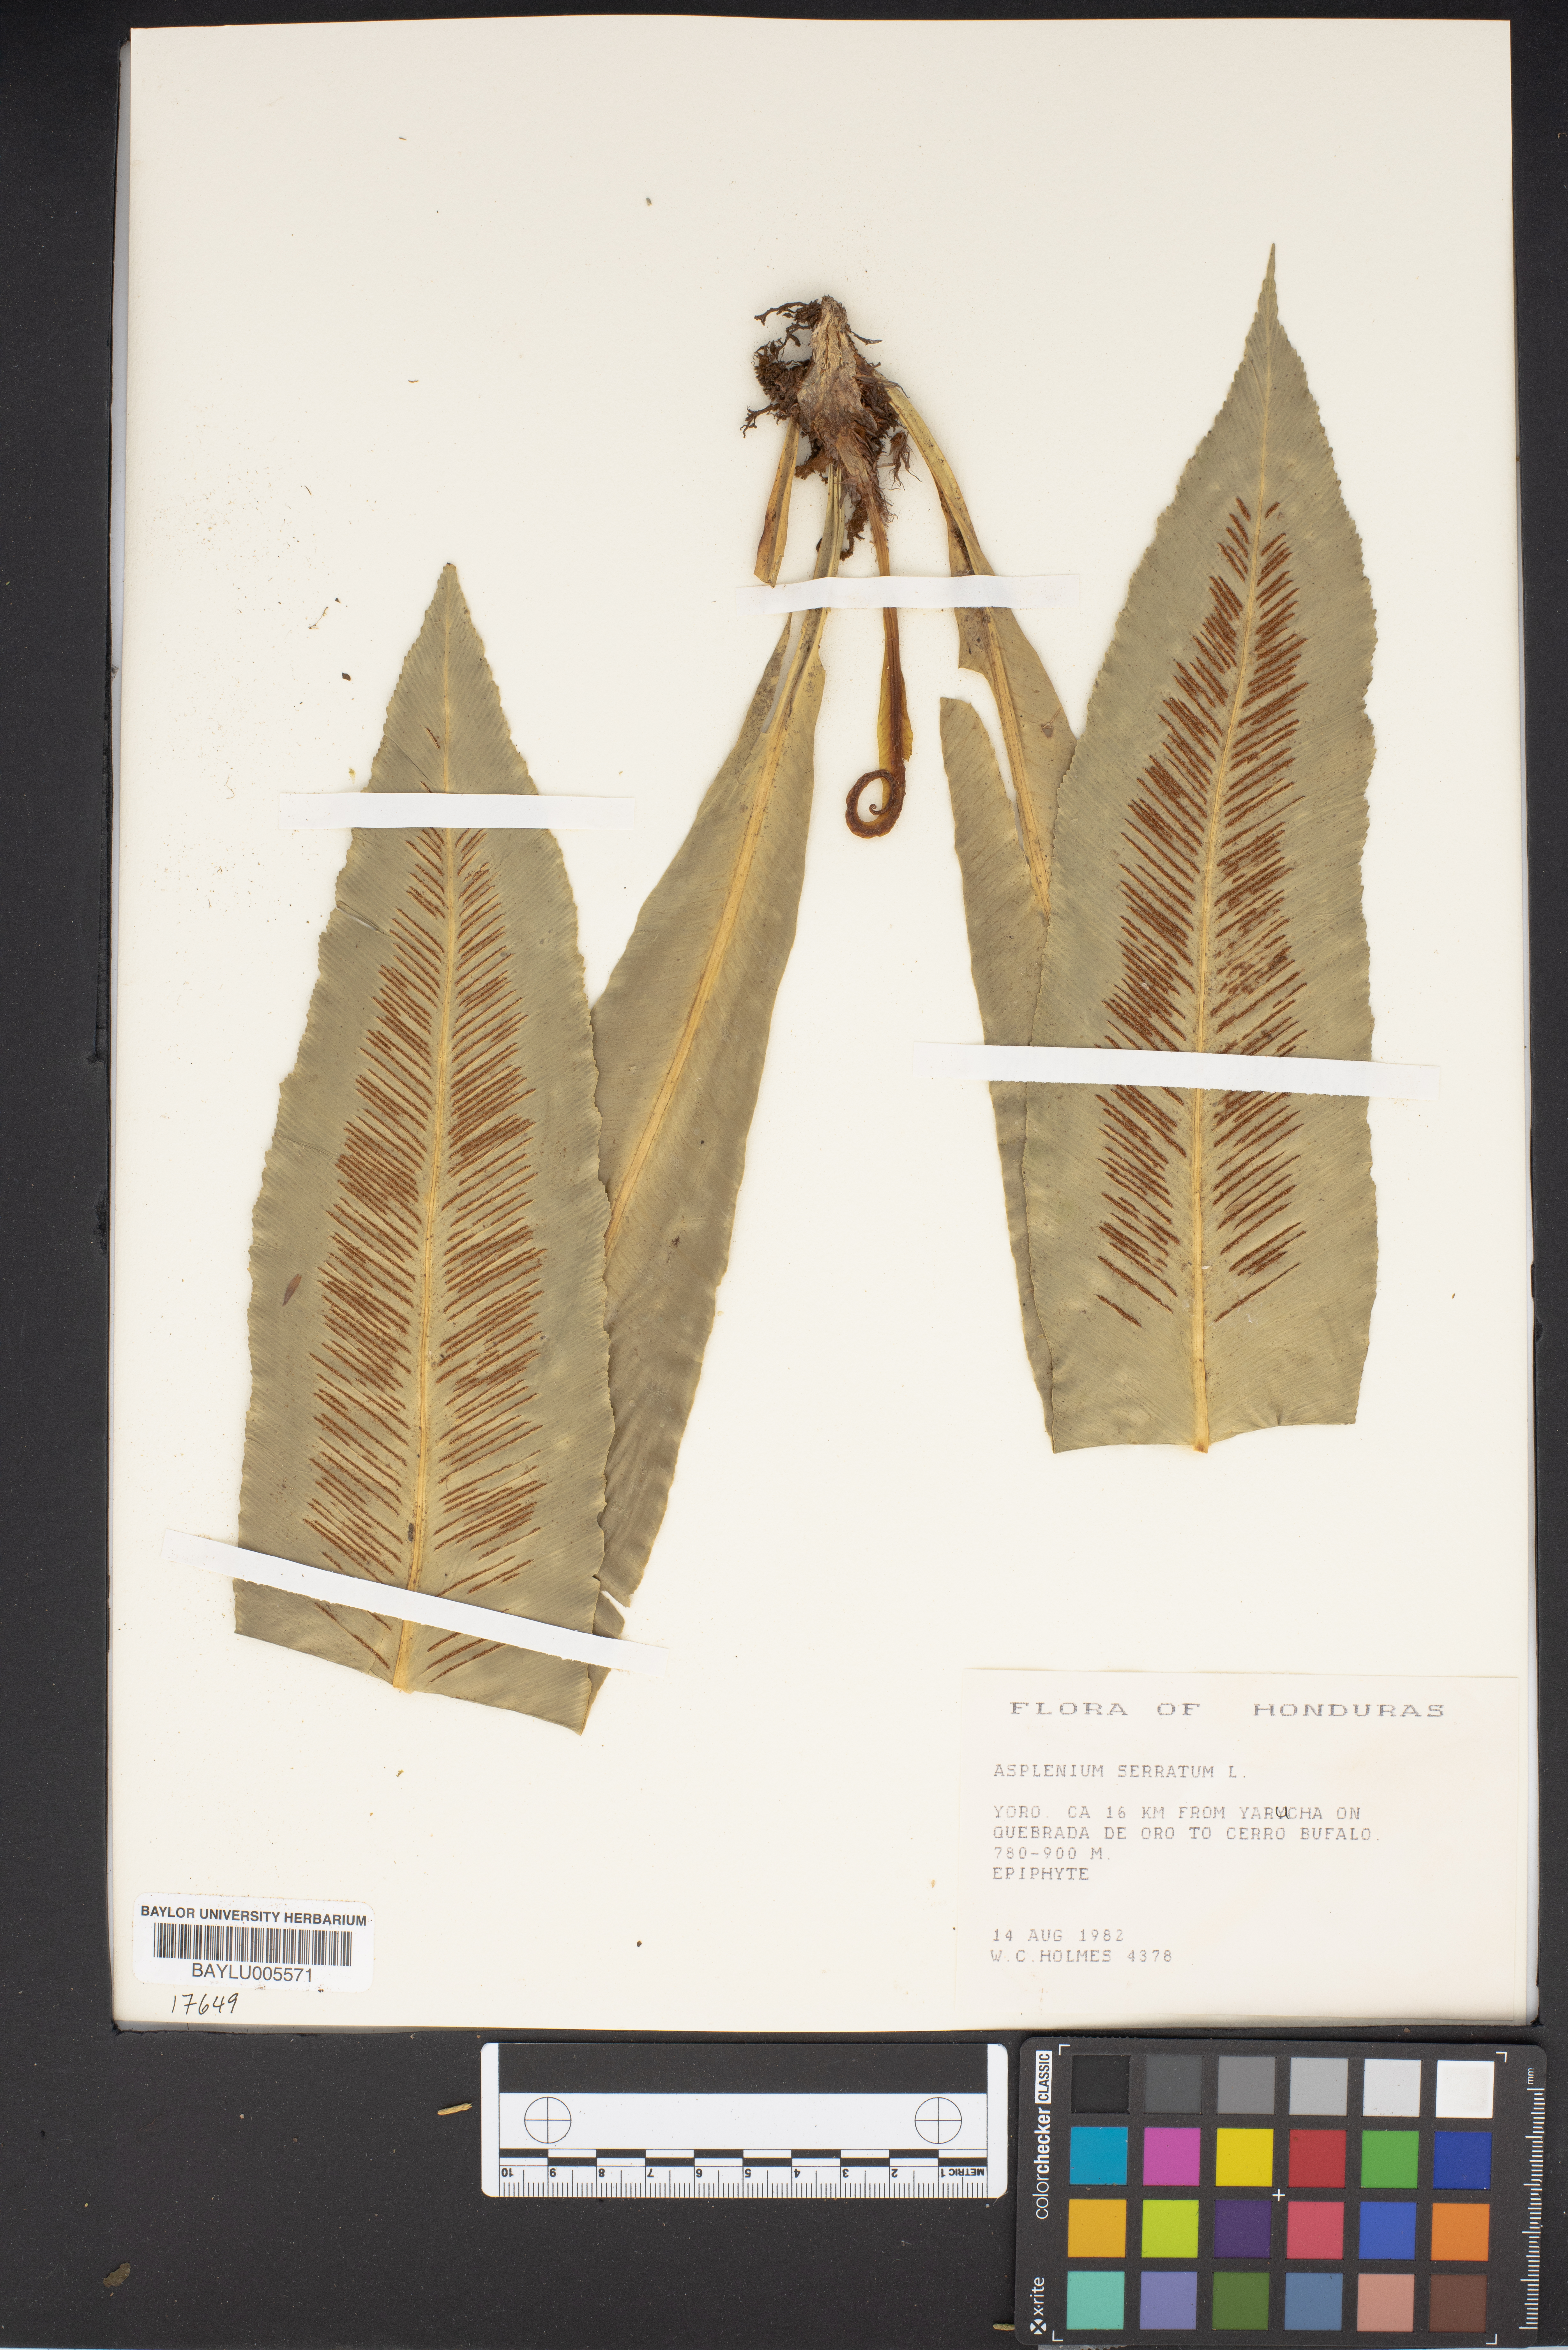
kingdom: Plantae
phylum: Tracheophyta
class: Polypodiopsida
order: Polypodiales
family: Aspleniaceae
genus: Asplenium
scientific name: Asplenium serratum
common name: Wild birdnest fern
